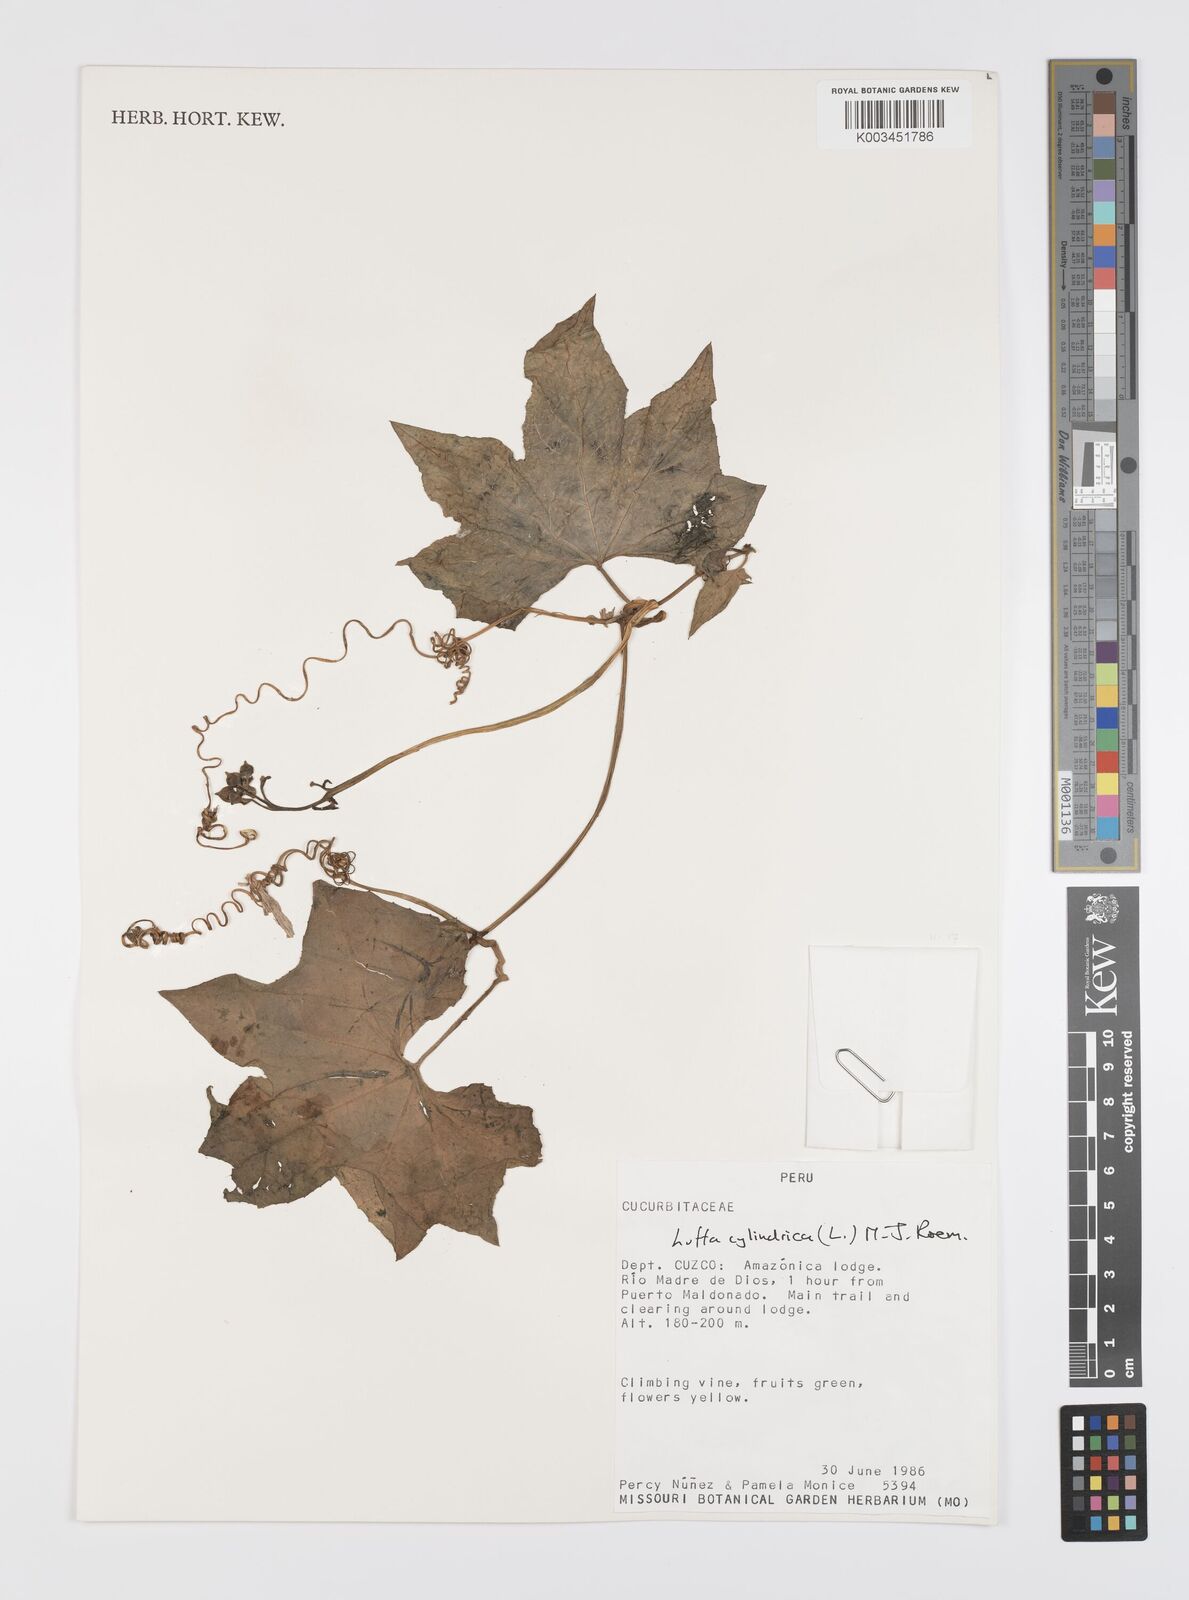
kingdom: Plantae
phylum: Tracheophyta
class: Magnoliopsida
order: Cucurbitales
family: Cucurbitaceae
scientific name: Cucurbitaceae
